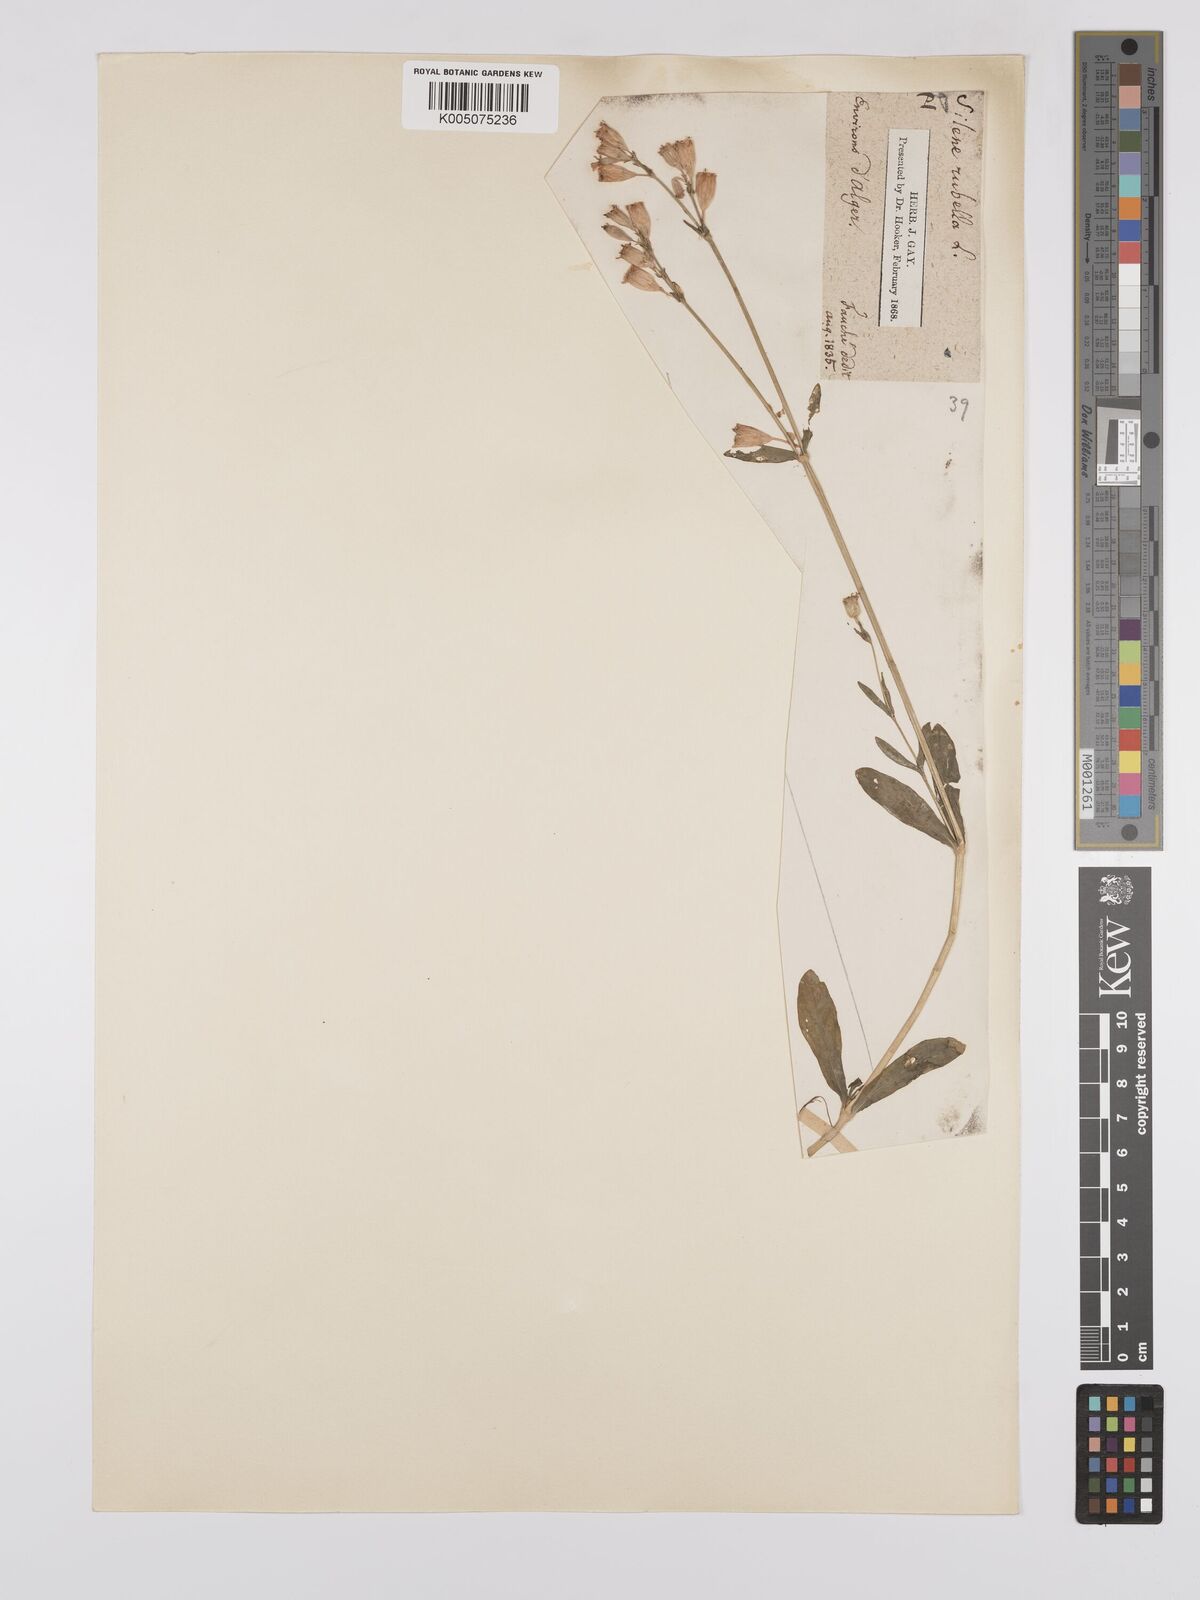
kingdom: Plantae
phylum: Tracheophyta
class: Magnoliopsida
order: Caryophyllales
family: Caryophyllaceae
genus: Silene
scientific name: Silene rubella
